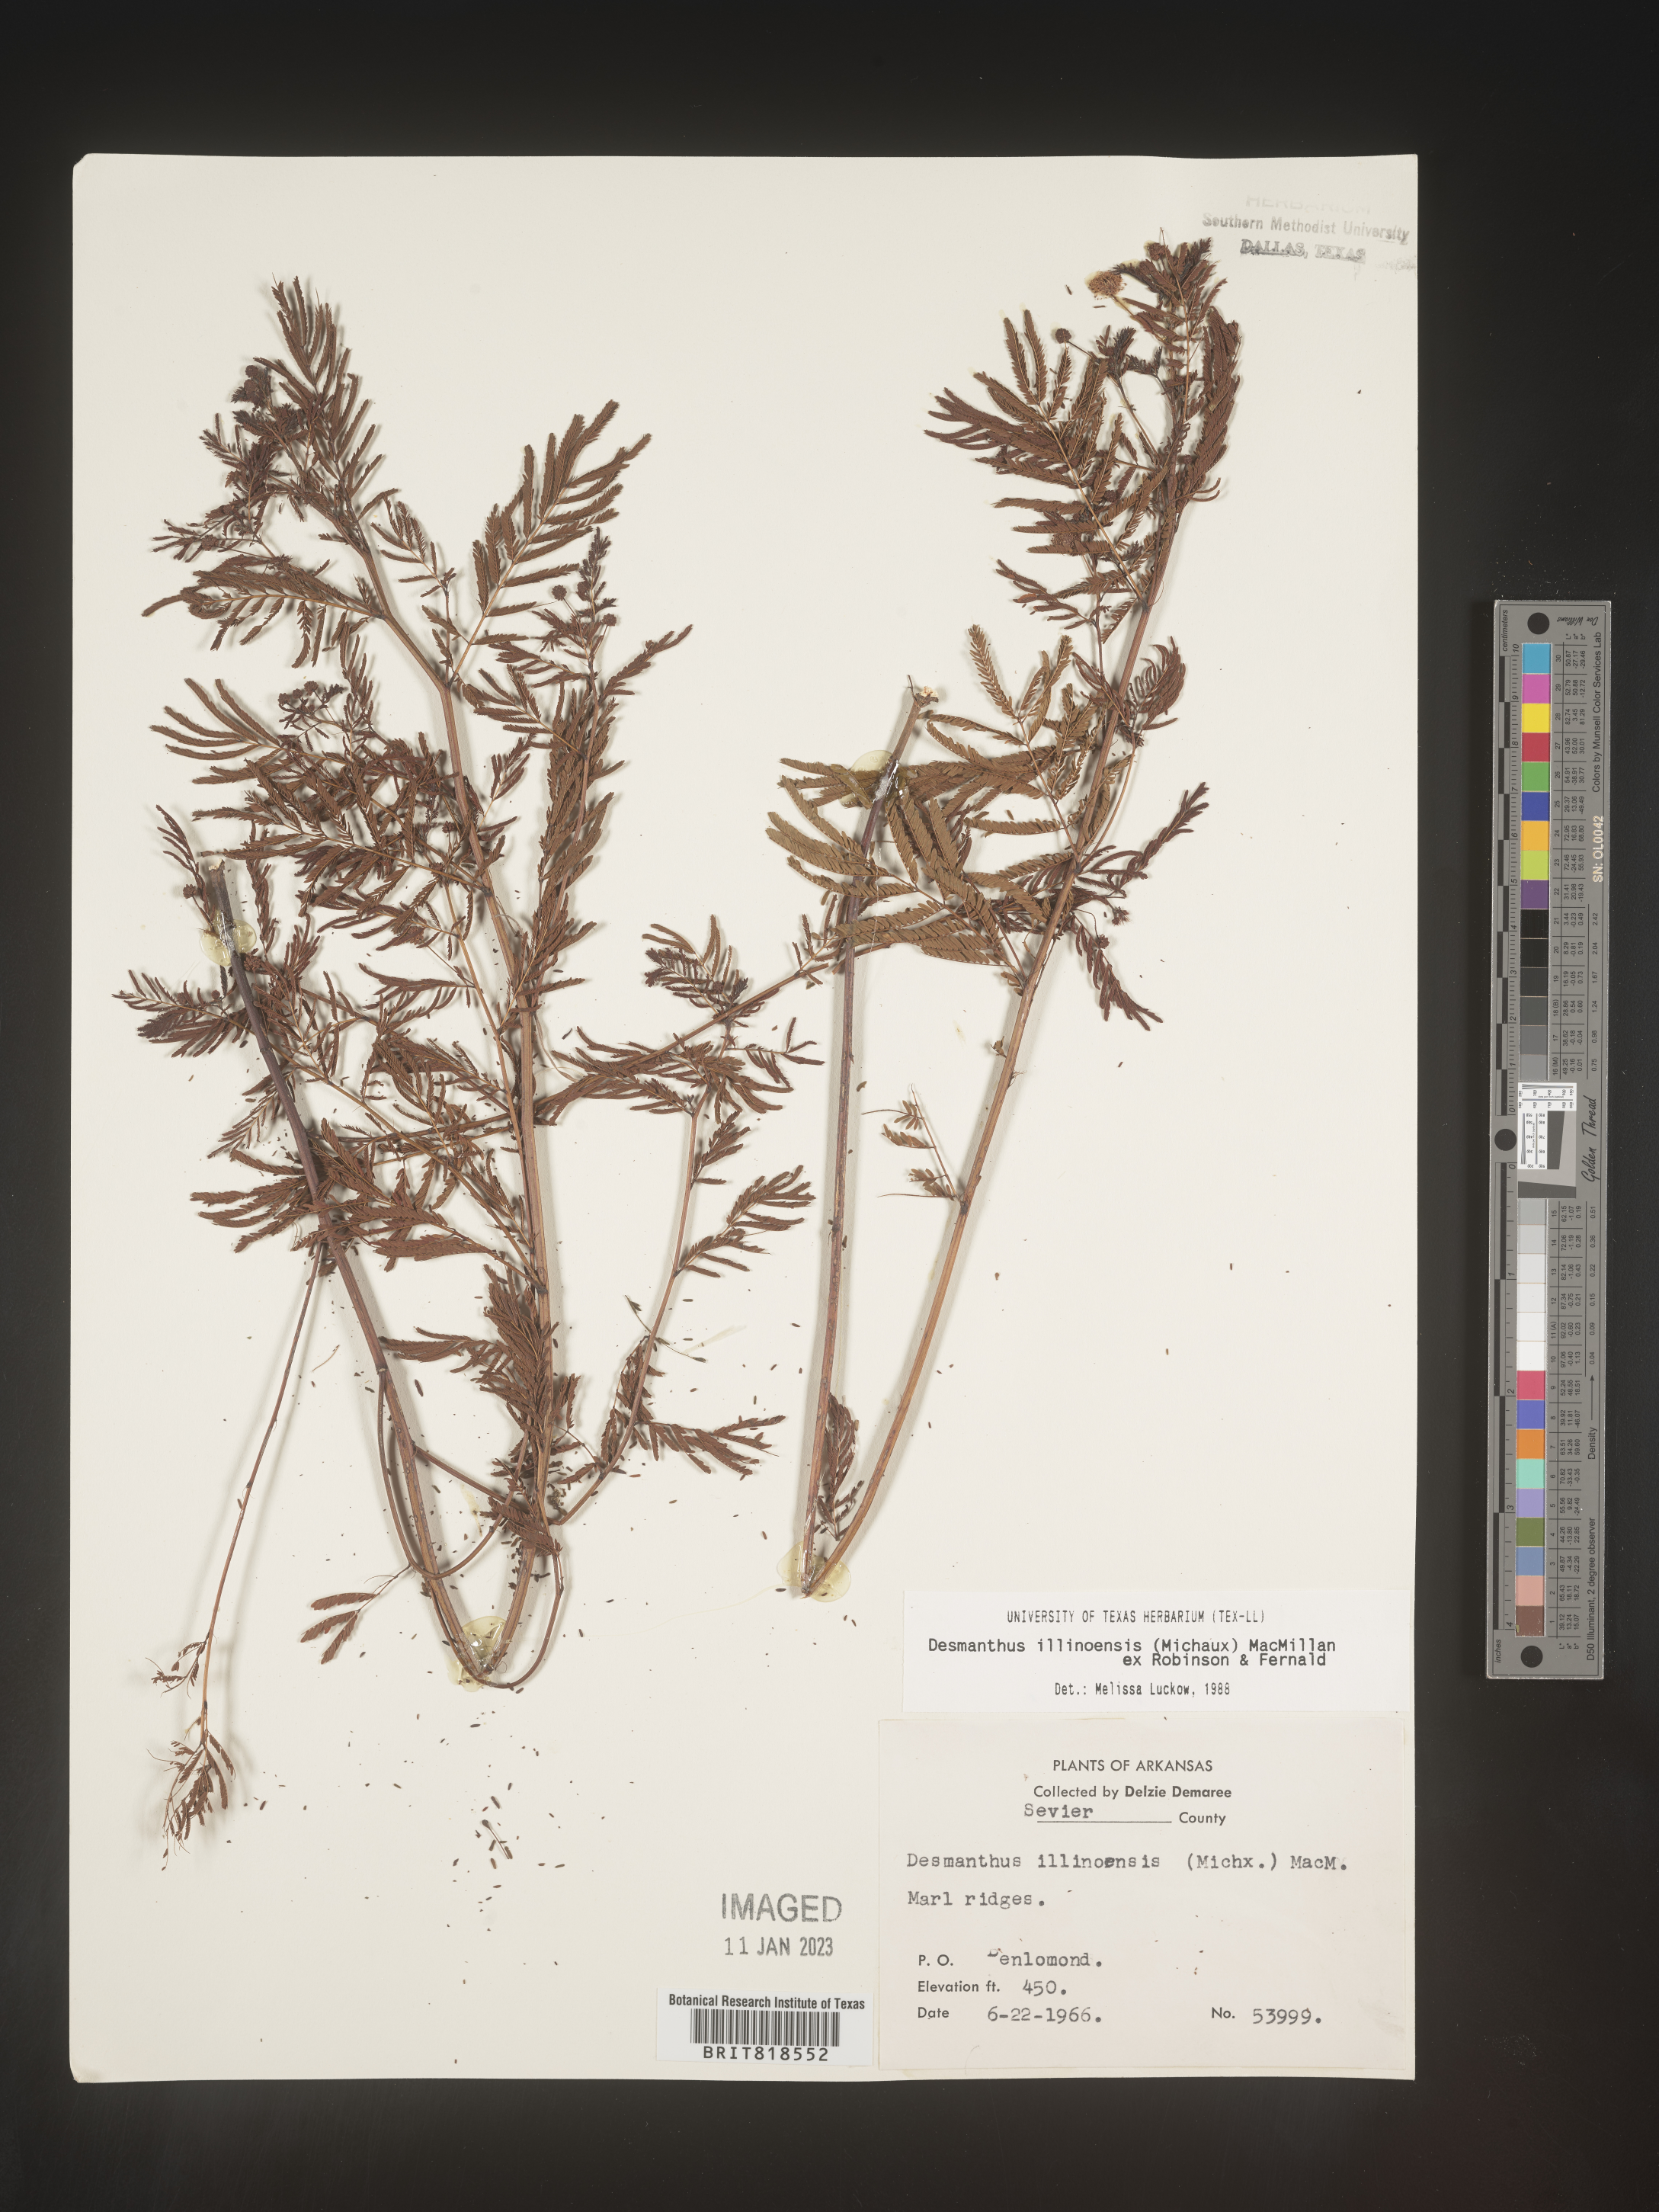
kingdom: Plantae
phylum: Tracheophyta
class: Magnoliopsida
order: Fabales
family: Fabaceae
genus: Desmanthus
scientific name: Desmanthus illinoensis
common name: Illinois bundle-flower
